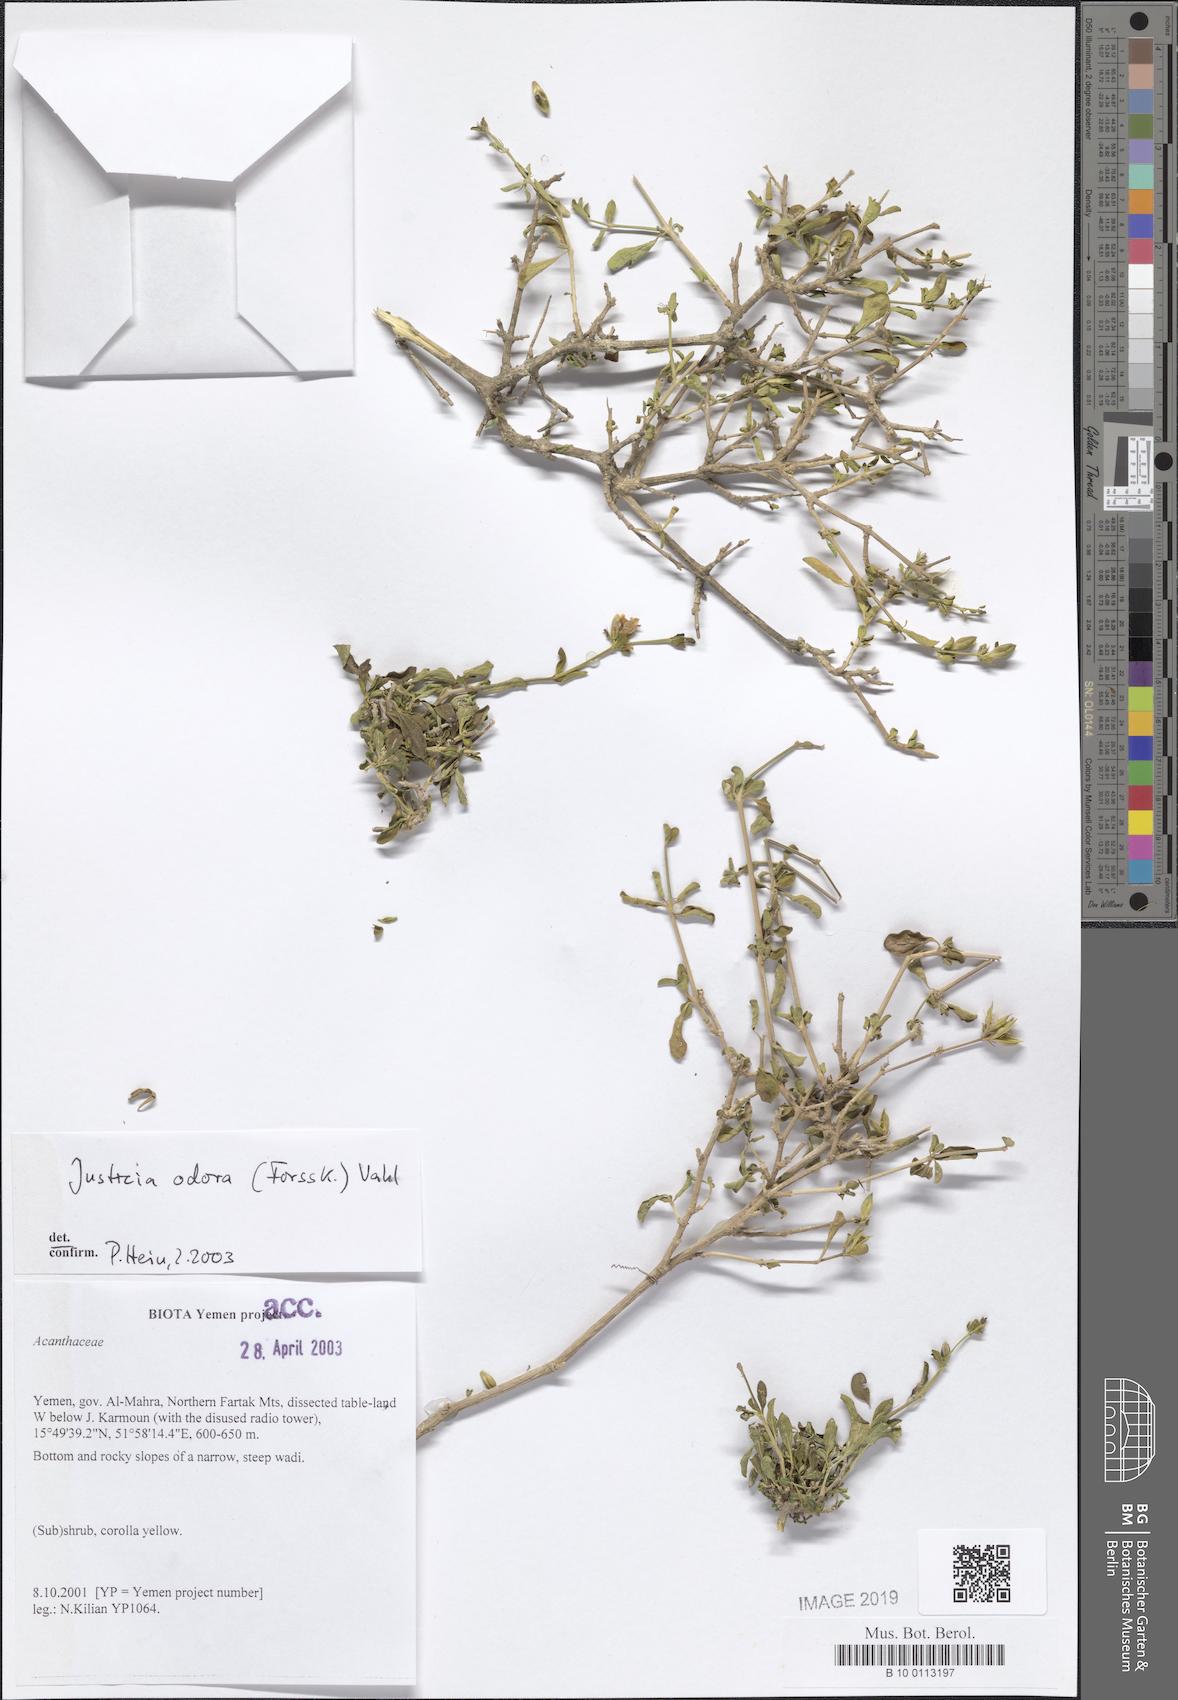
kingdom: Plantae
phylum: Tracheophyta
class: Magnoliopsida
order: Lamiales
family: Acanthaceae
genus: Justicia
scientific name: Justicia odora
